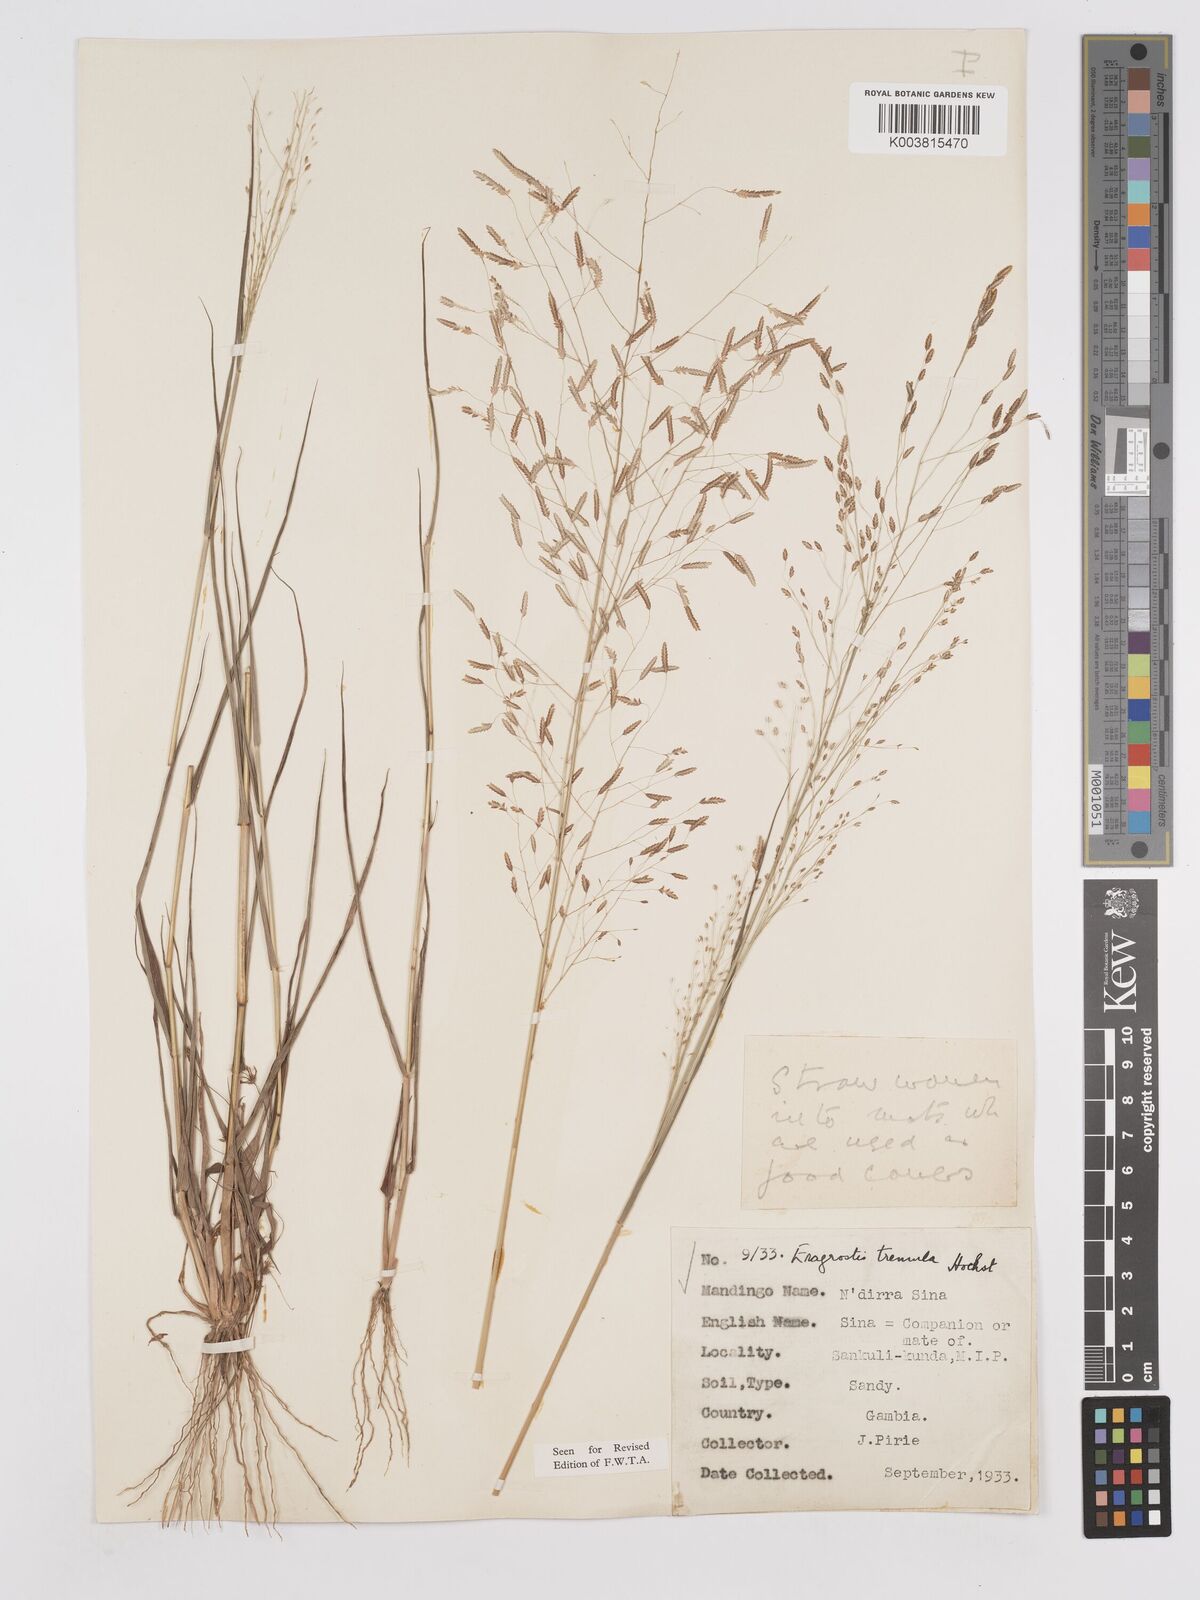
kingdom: Plantae
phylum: Tracheophyta
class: Liliopsida
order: Poales
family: Poaceae
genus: Eragrostis
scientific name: Eragrostis tremula
